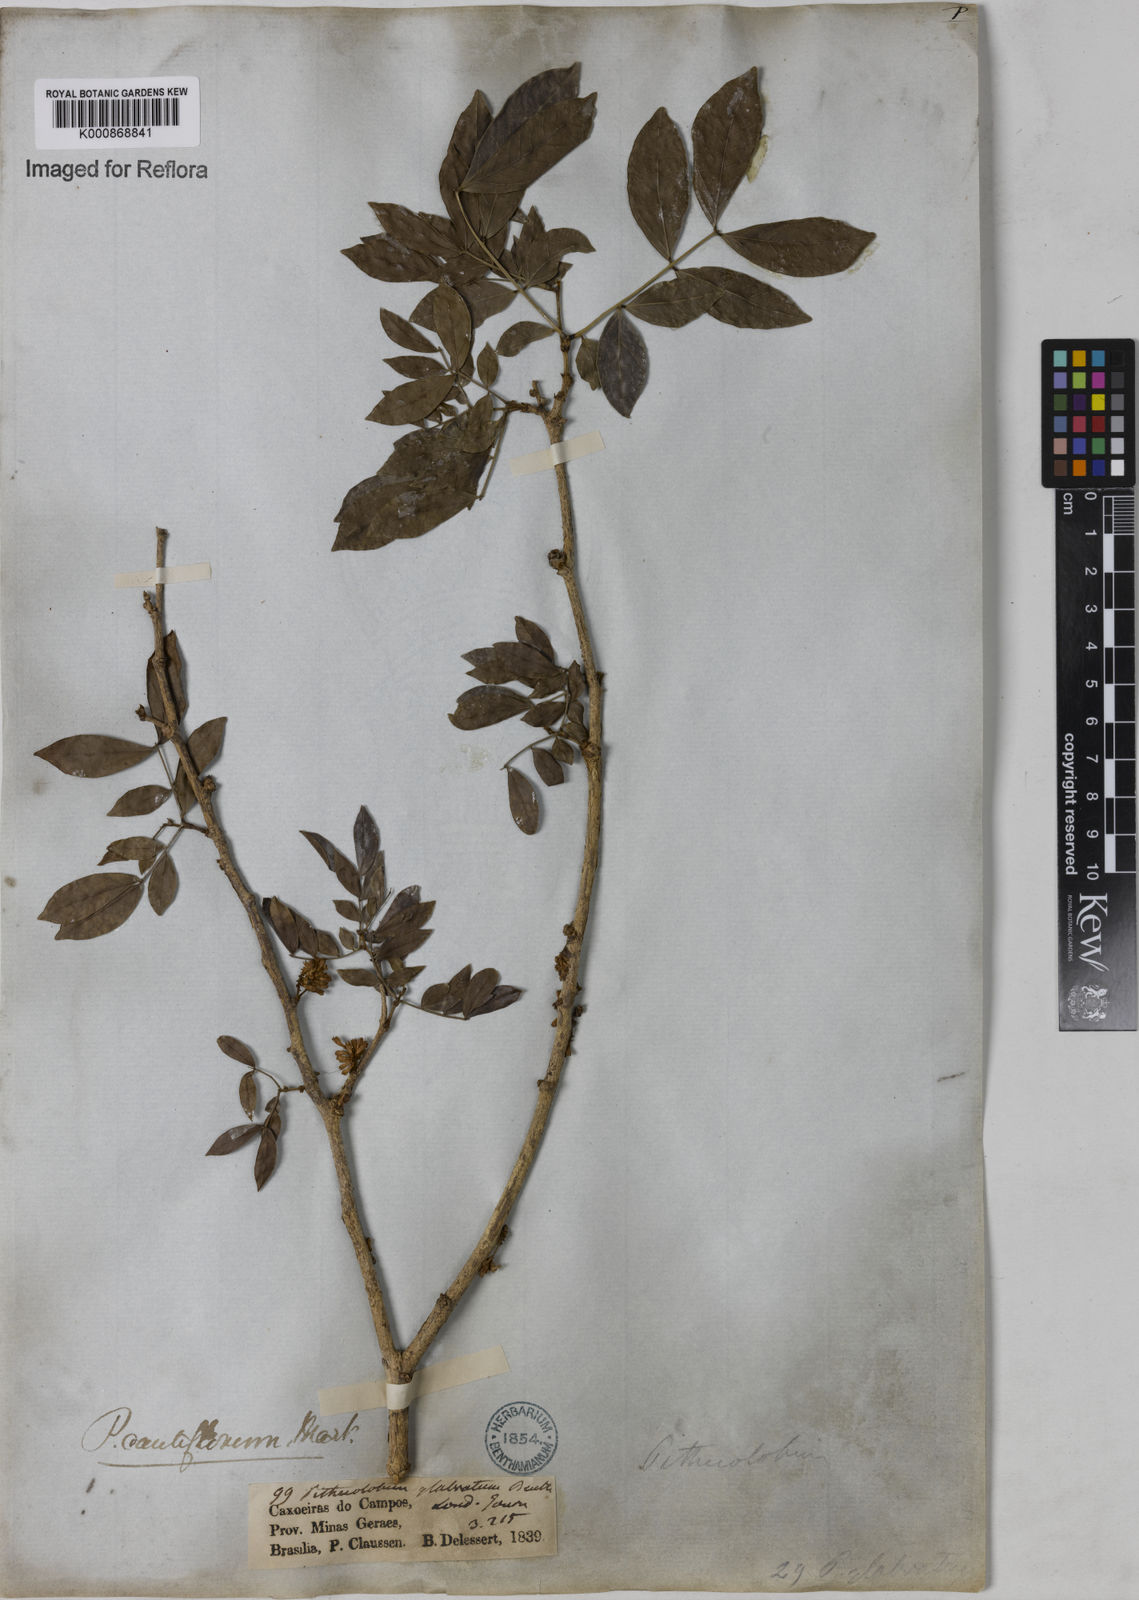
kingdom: Plantae
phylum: Tracheophyta
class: Magnoliopsida
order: Fabales
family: Fabaceae
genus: Zygia
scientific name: Zygia
